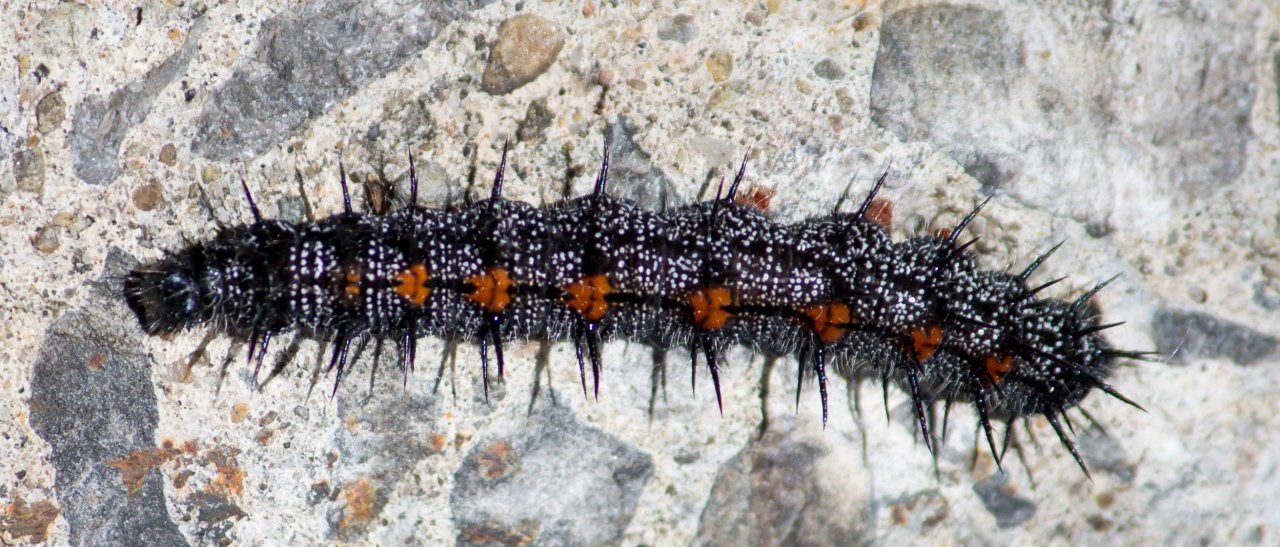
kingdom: Animalia
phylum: Arthropoda
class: Insecta
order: Lepidoptera
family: Nymphalidae
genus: Nymphalis
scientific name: Nymphalis antiopa
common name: Mourning Cloak
